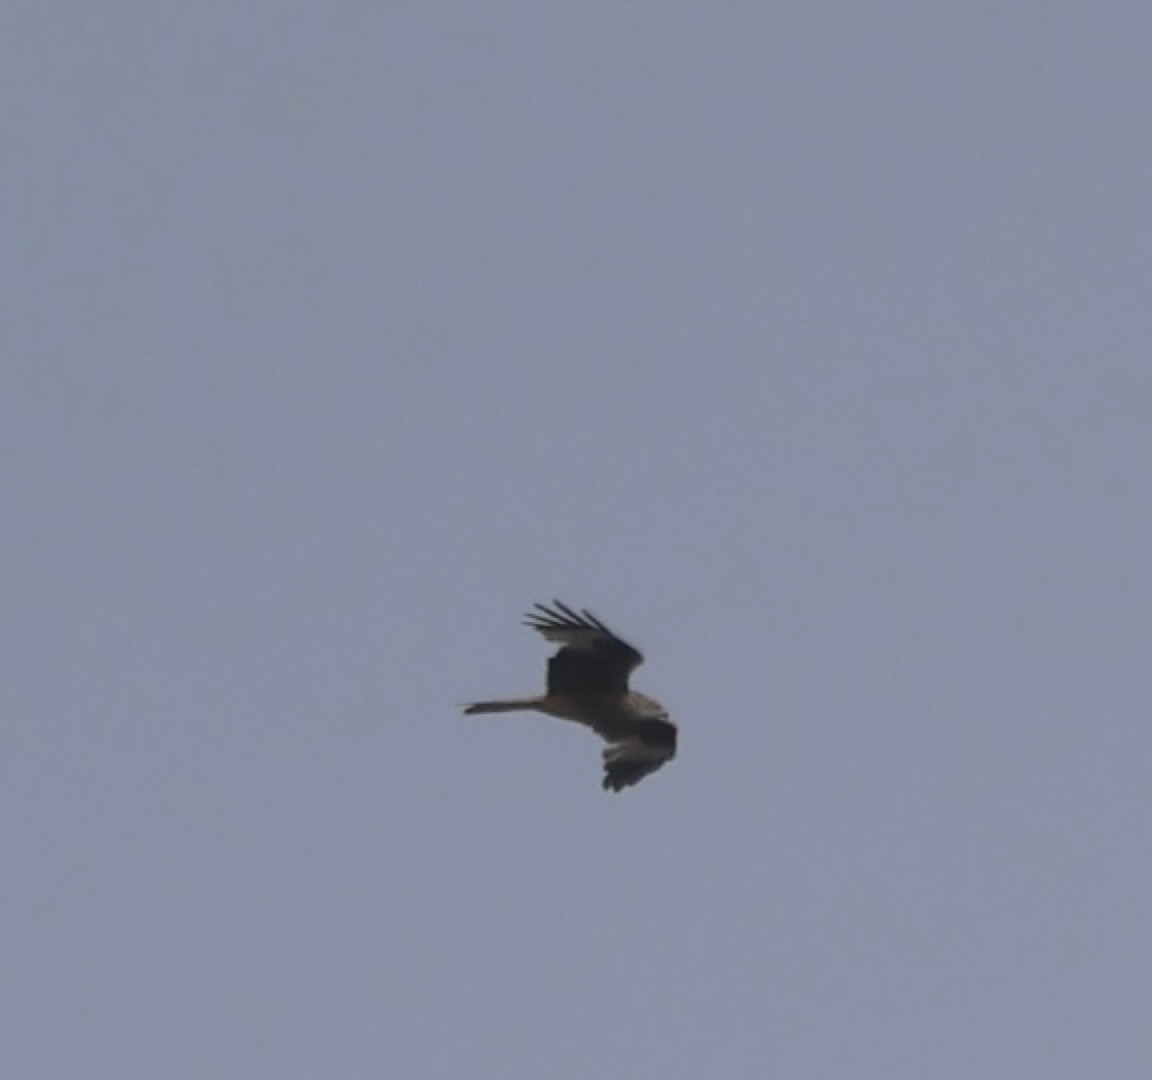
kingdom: Animalia
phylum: Chordata
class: Aves
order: Accipitriformes
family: Accipitridae
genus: Milvus
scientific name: Milvus milvus
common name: Rød glente
